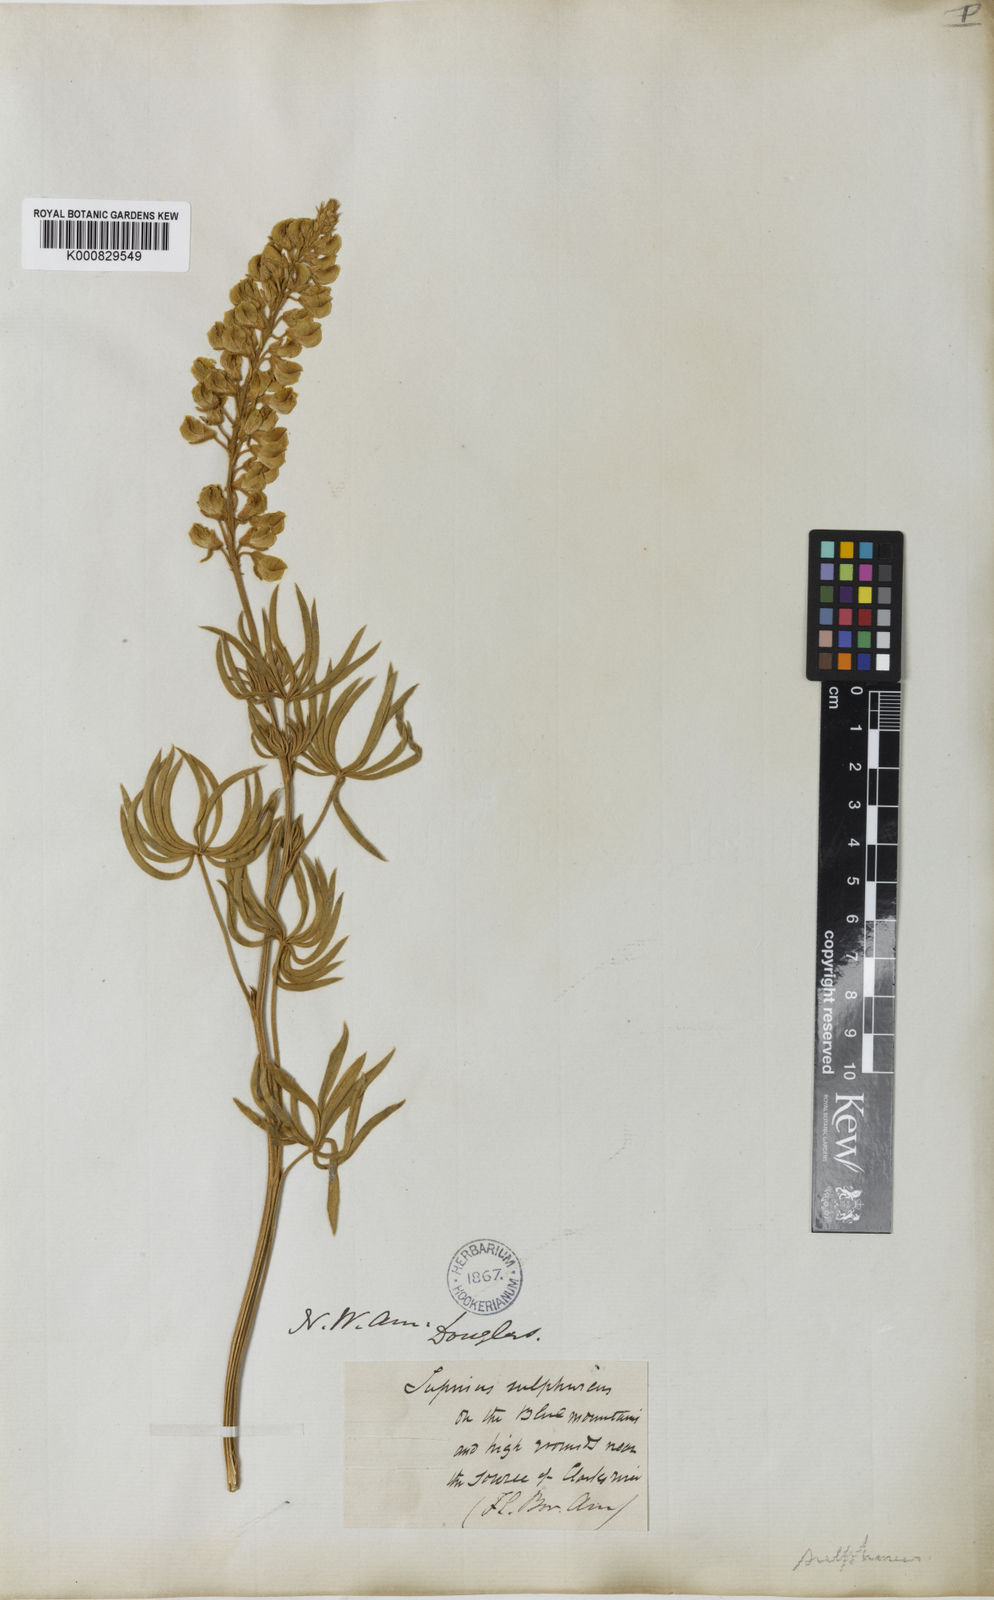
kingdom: Plantae
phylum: Tracheophyta
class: Magnoliopsida
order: Fabales
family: Fabaceae
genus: Lupinus
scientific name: Lupinus
